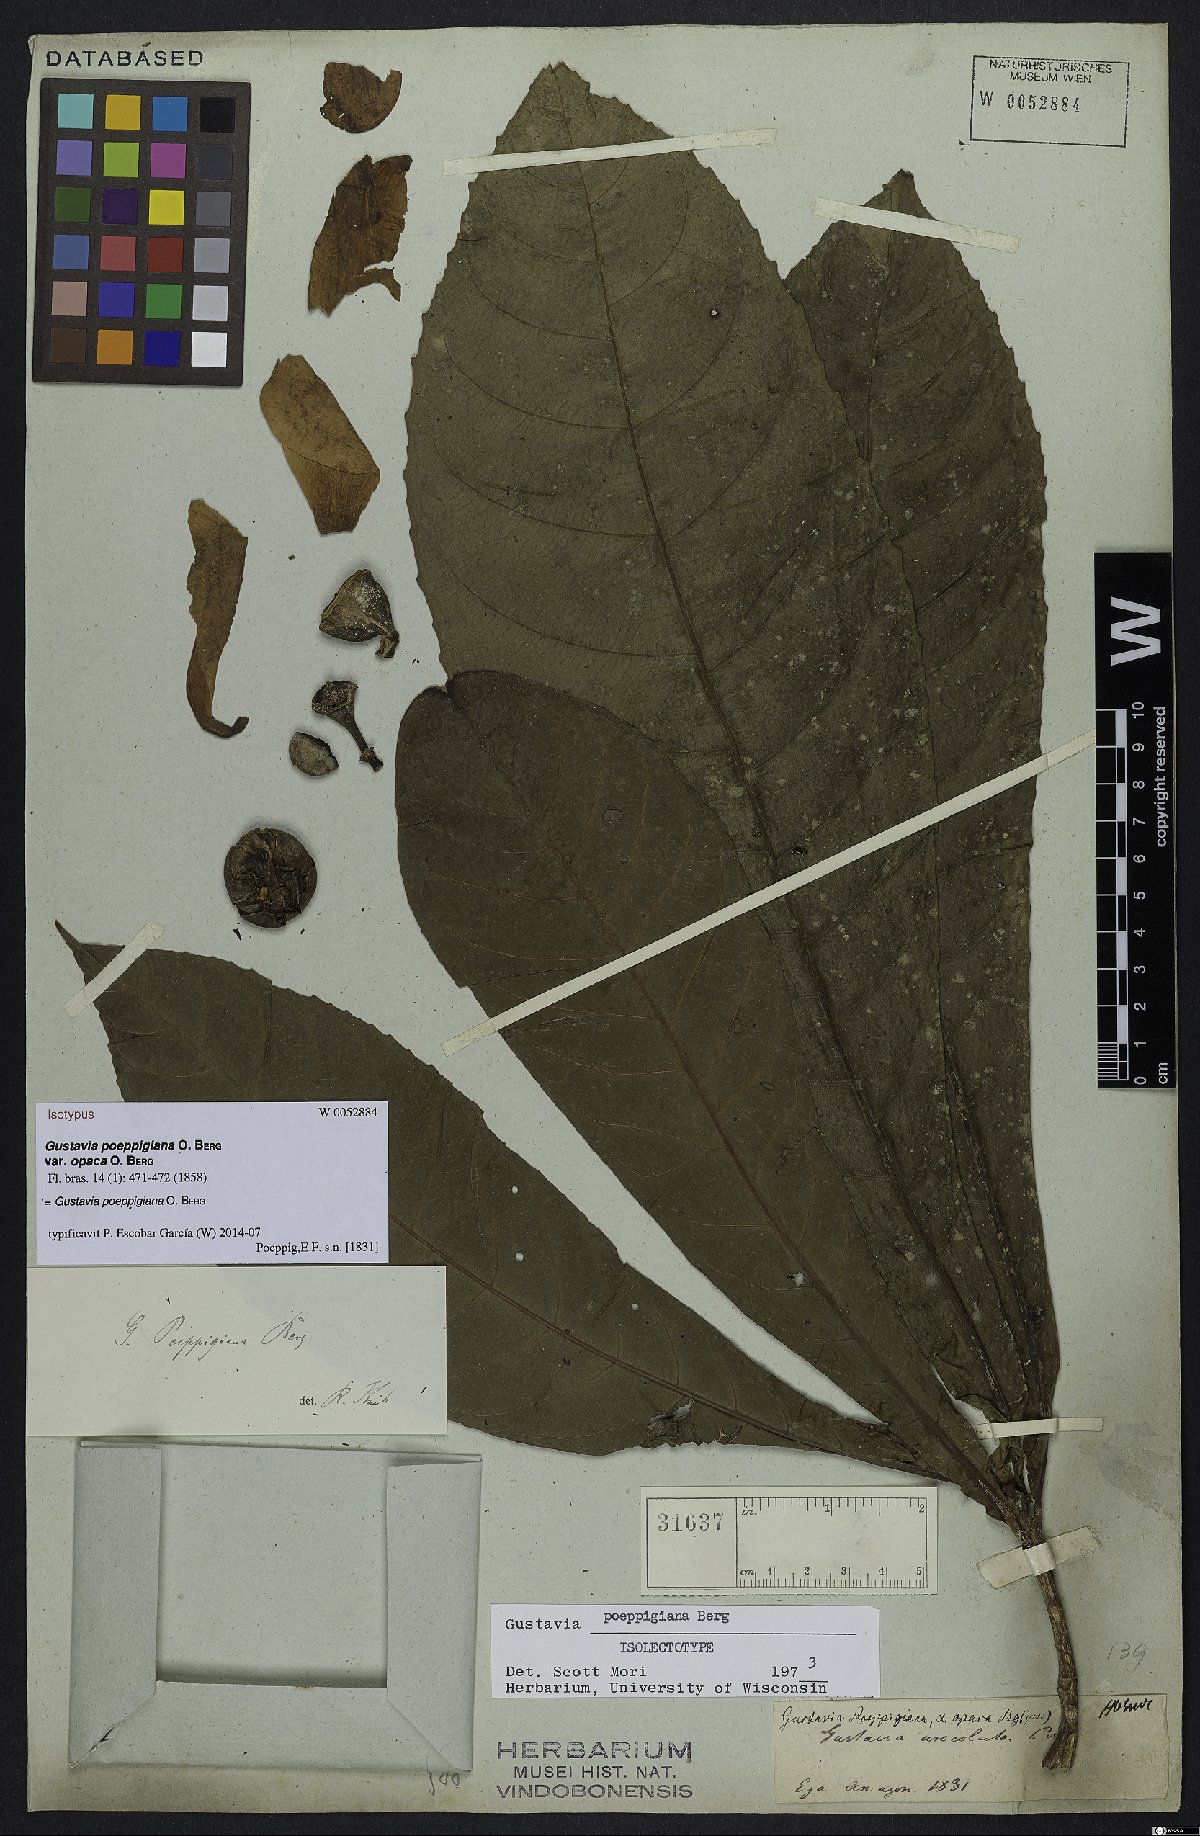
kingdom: Plantae
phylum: Tracheophyta
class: Magnoliopsida
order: Ericales
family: Lecythidaceae
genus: Gustavia
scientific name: Gustavia poeppigiana
